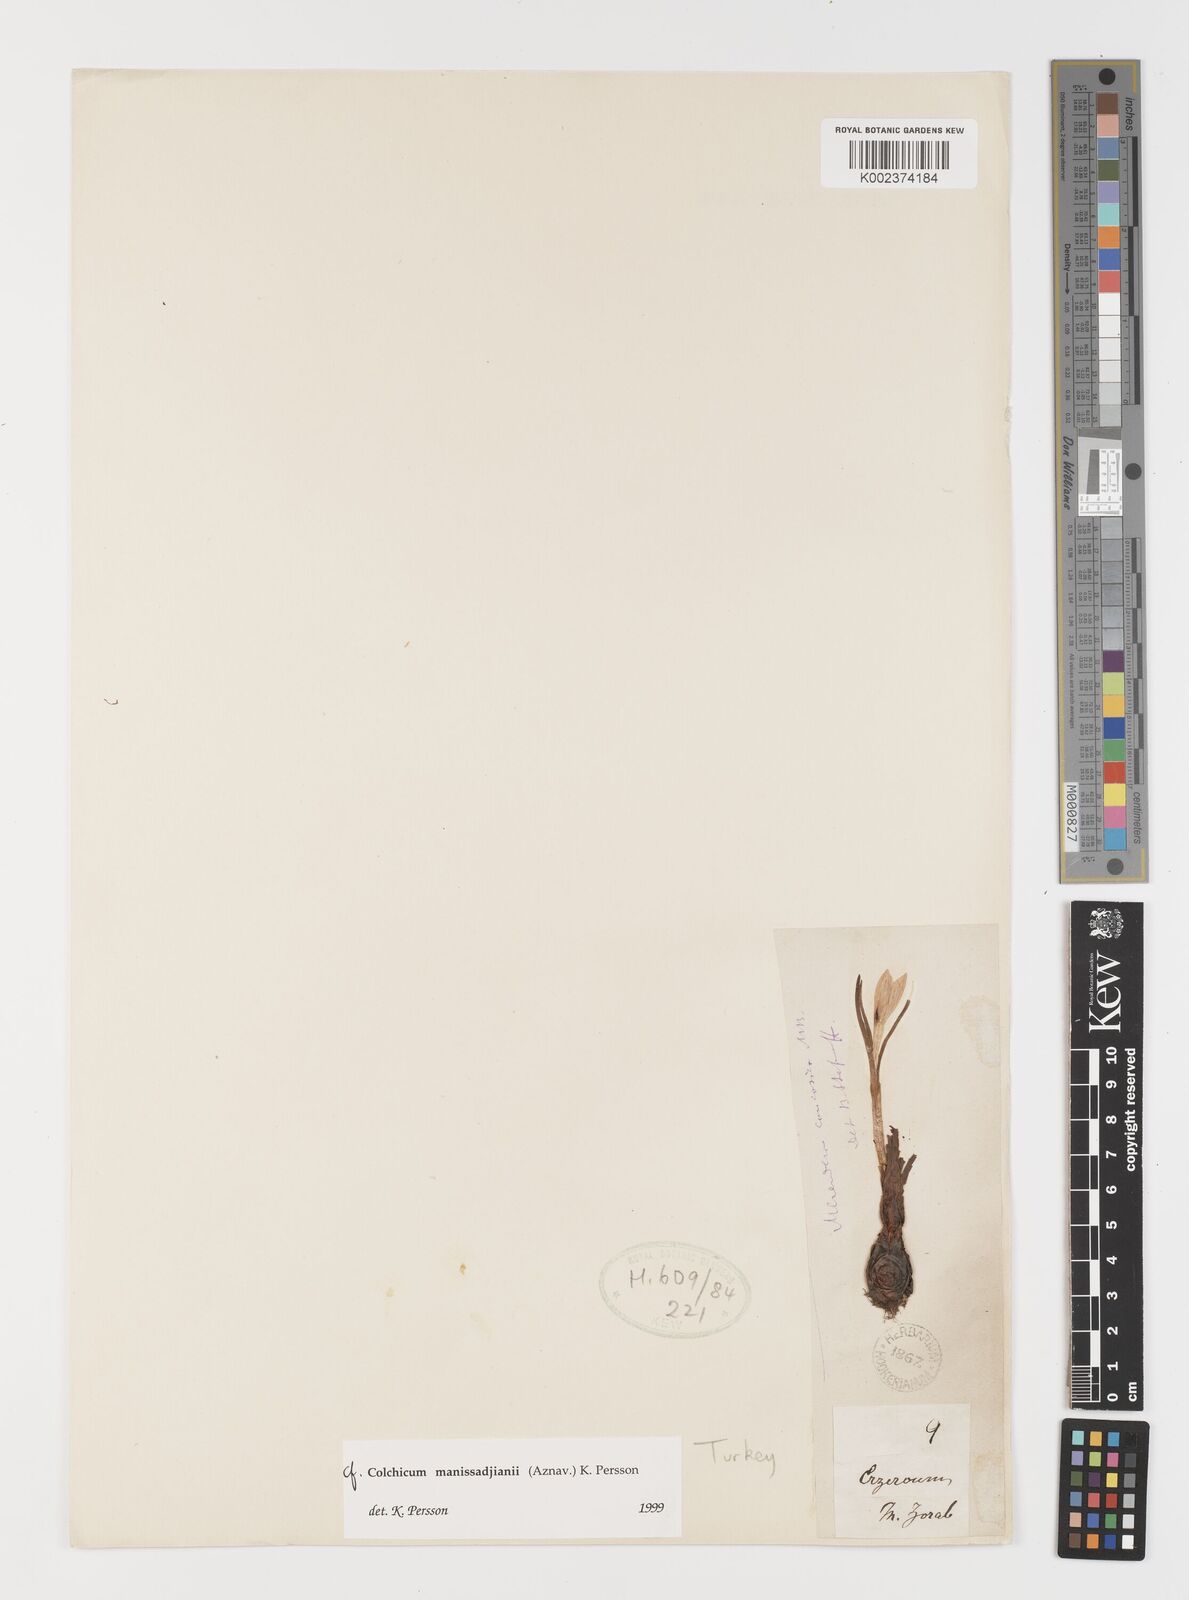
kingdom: Plantae
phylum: Tracheophyta
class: Liliopsida
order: Liliales
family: Colchicaceae
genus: Colchicum
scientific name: Colchicum manissadjianii
